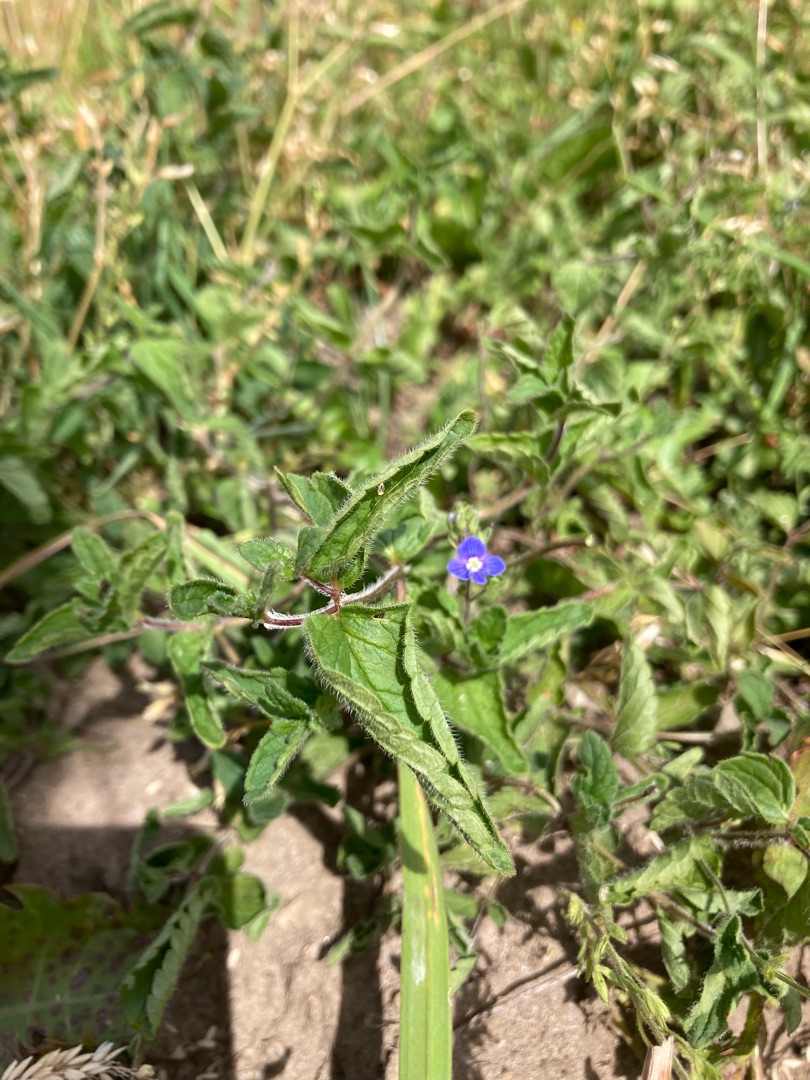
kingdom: Plantae
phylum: Tracheophyta
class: Magnoliopsida
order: Lamiales
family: Plantaginaceae
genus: Veronica
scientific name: Veronica chamaedrys
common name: Tveskægget ærenpris
